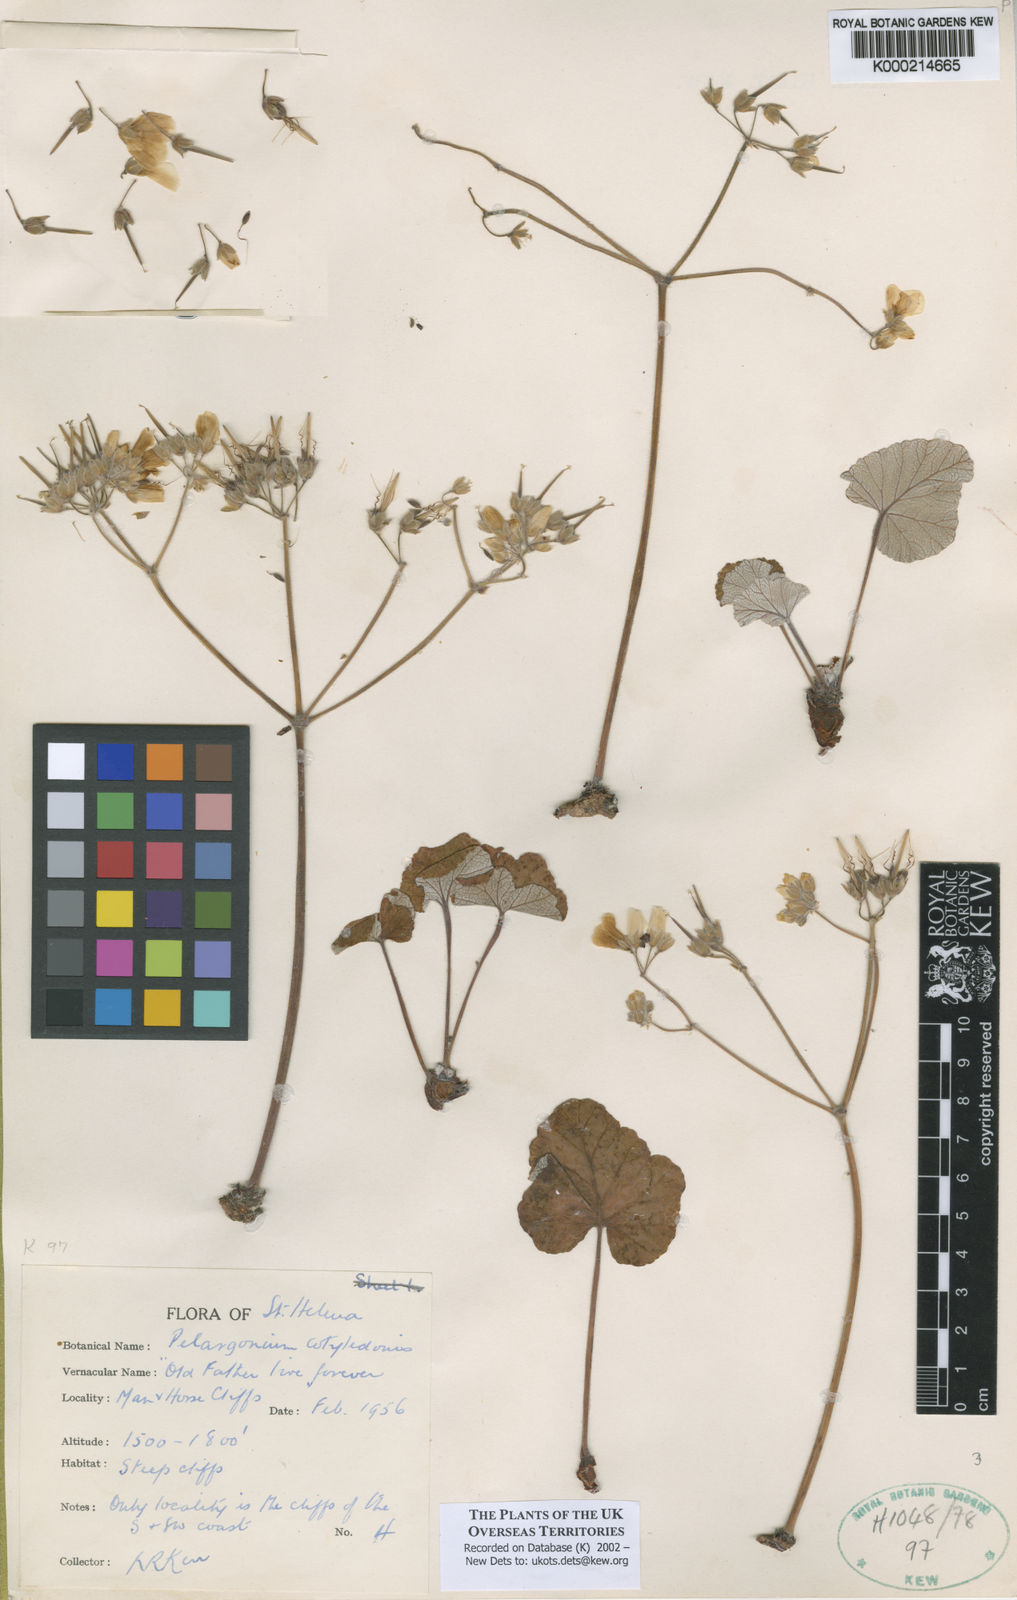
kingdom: Plantae
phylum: Tracheophyta
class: Magnoliopsida
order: Geraniales
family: Geraniaceae
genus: Pelargonium
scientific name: Pelargonium
